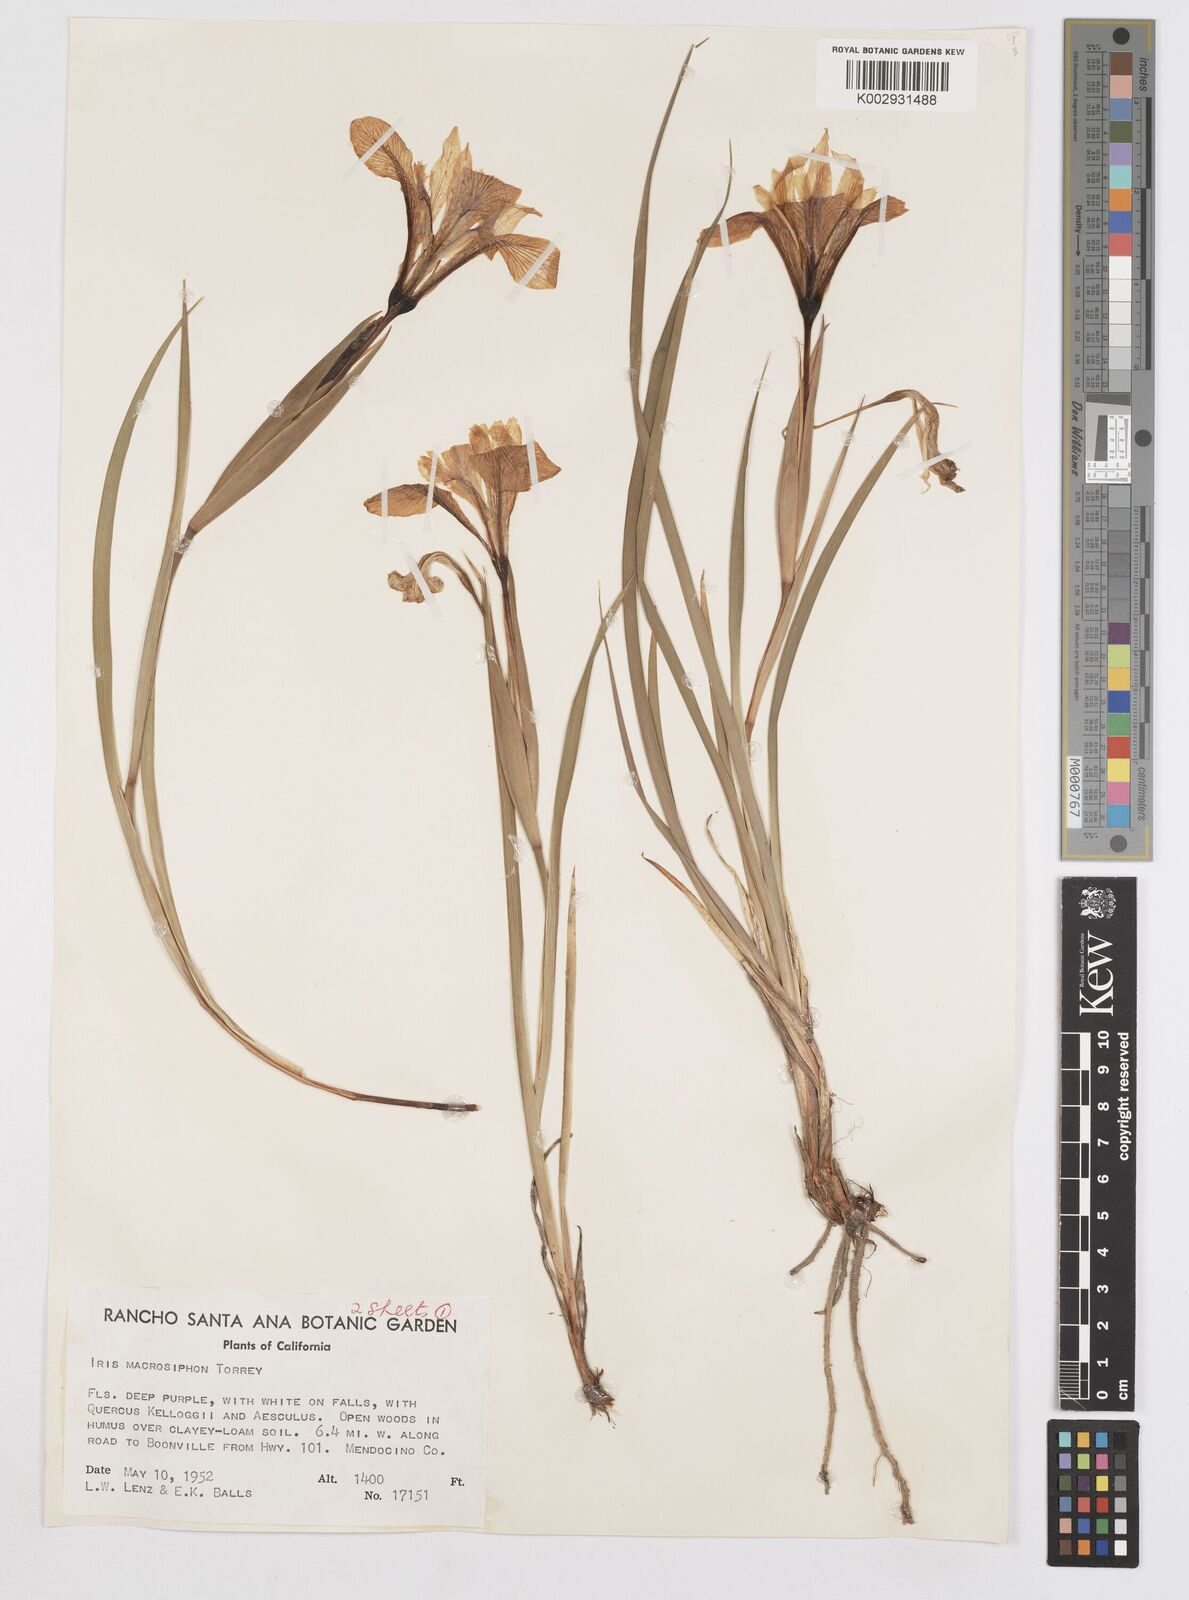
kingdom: Plantae
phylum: Tracheophyta
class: Liliopsida
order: Asparagales
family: Iridaceae
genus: Iris
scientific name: Iris macrosiphon
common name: Ground iris
